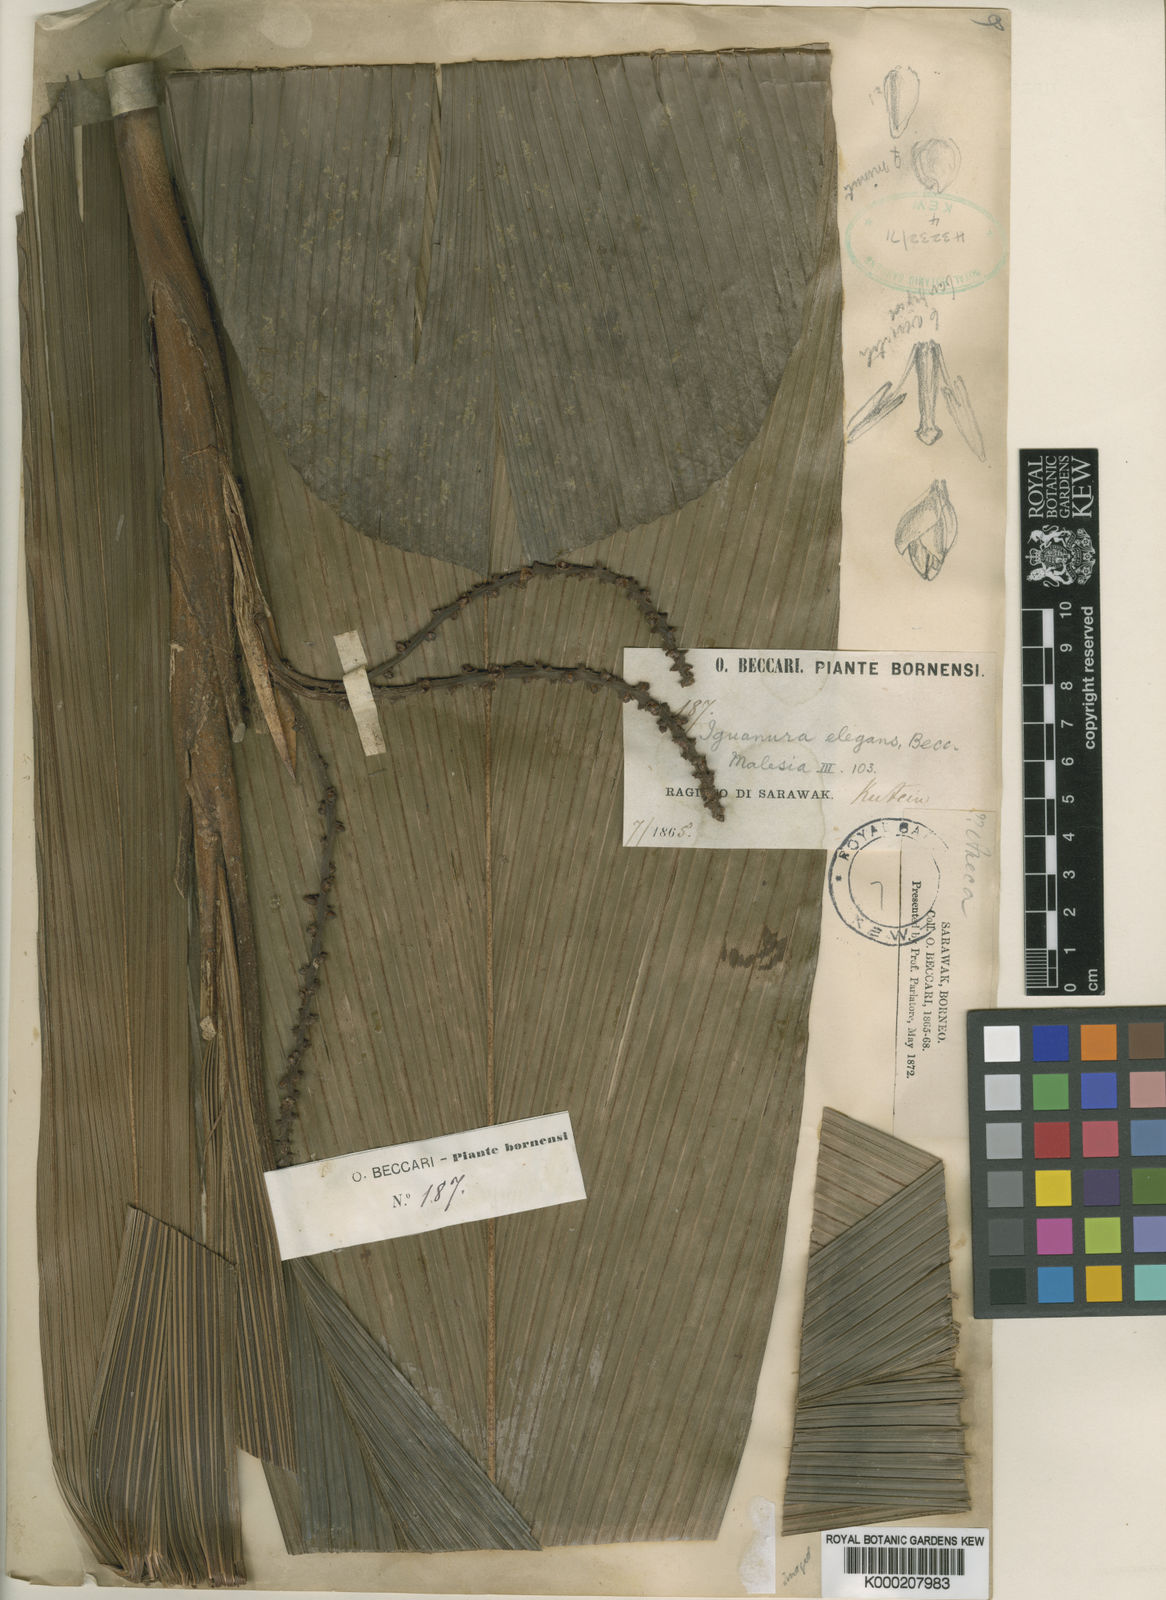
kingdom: Plantae
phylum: Tracheophyta
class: Liliopsida
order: Arecales
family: Arecaceae
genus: Iguanura
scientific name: Iguanura elegans
